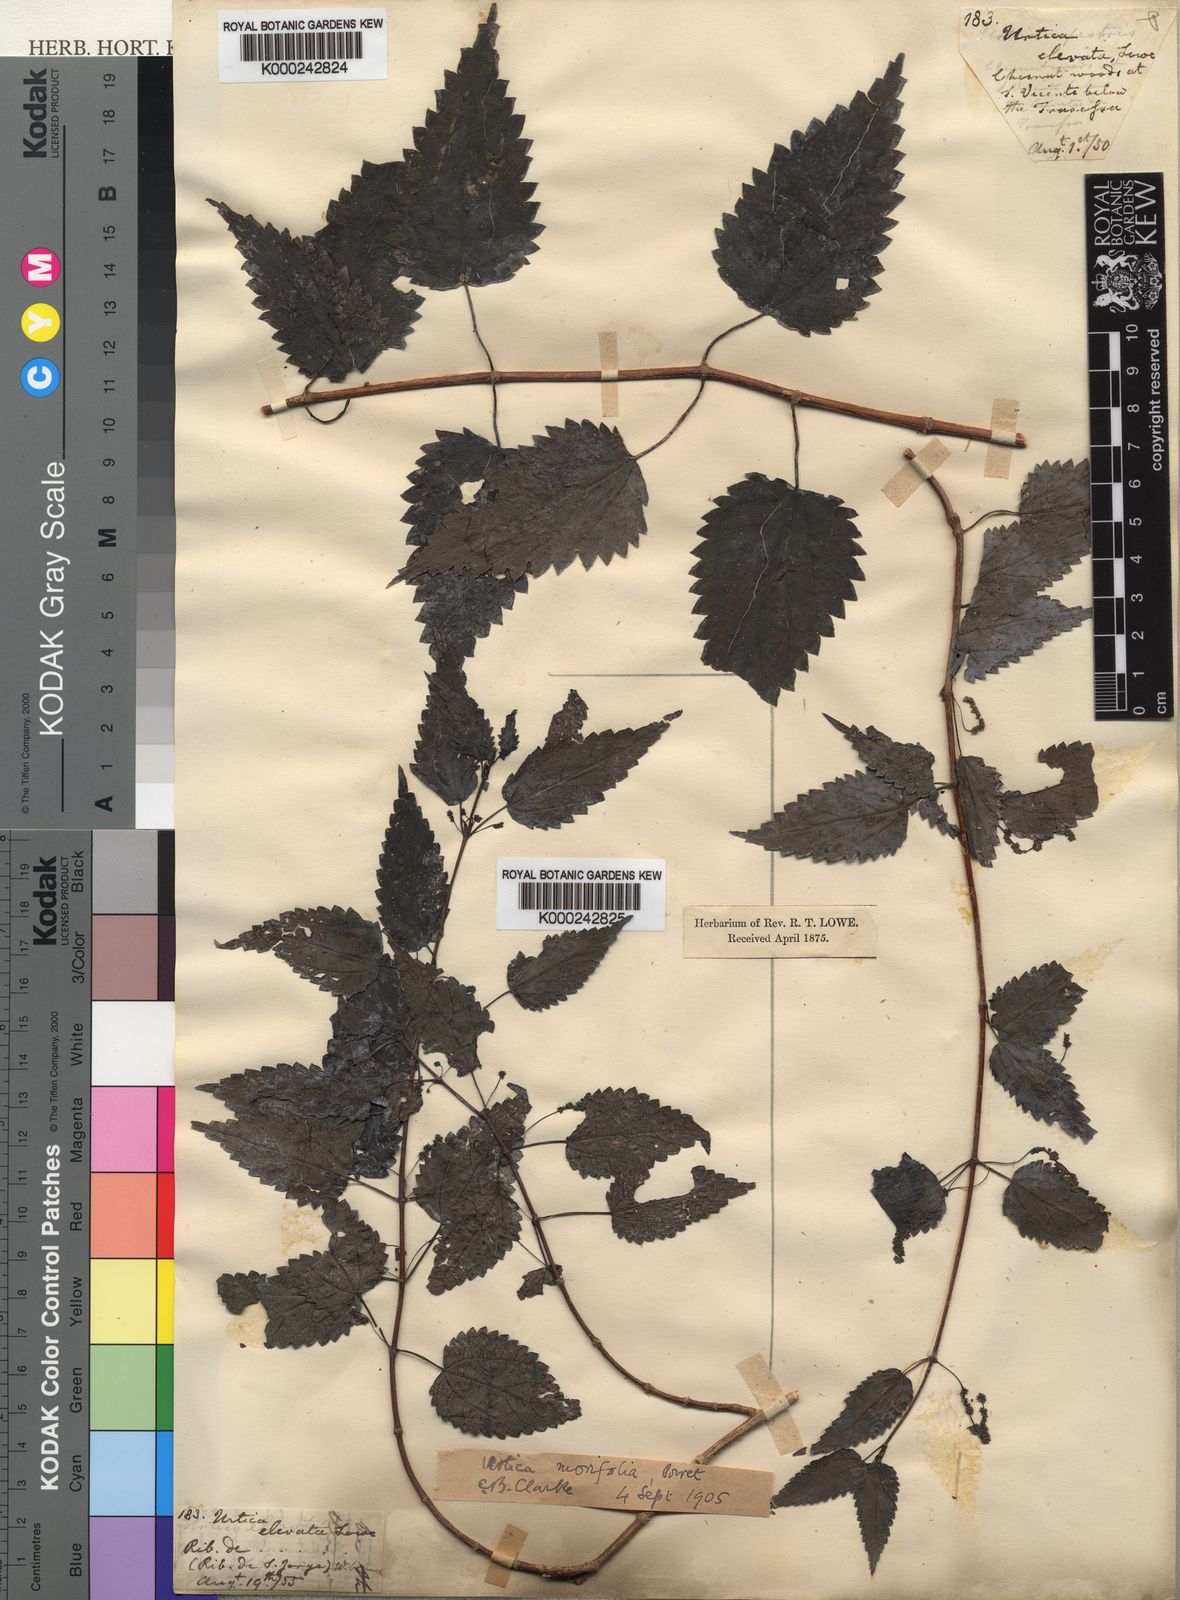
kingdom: Plantae
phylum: Tracheophyta
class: Magnoliopsida
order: Rosales
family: Urticaceae
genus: Urtica
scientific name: Urtica morifolia
